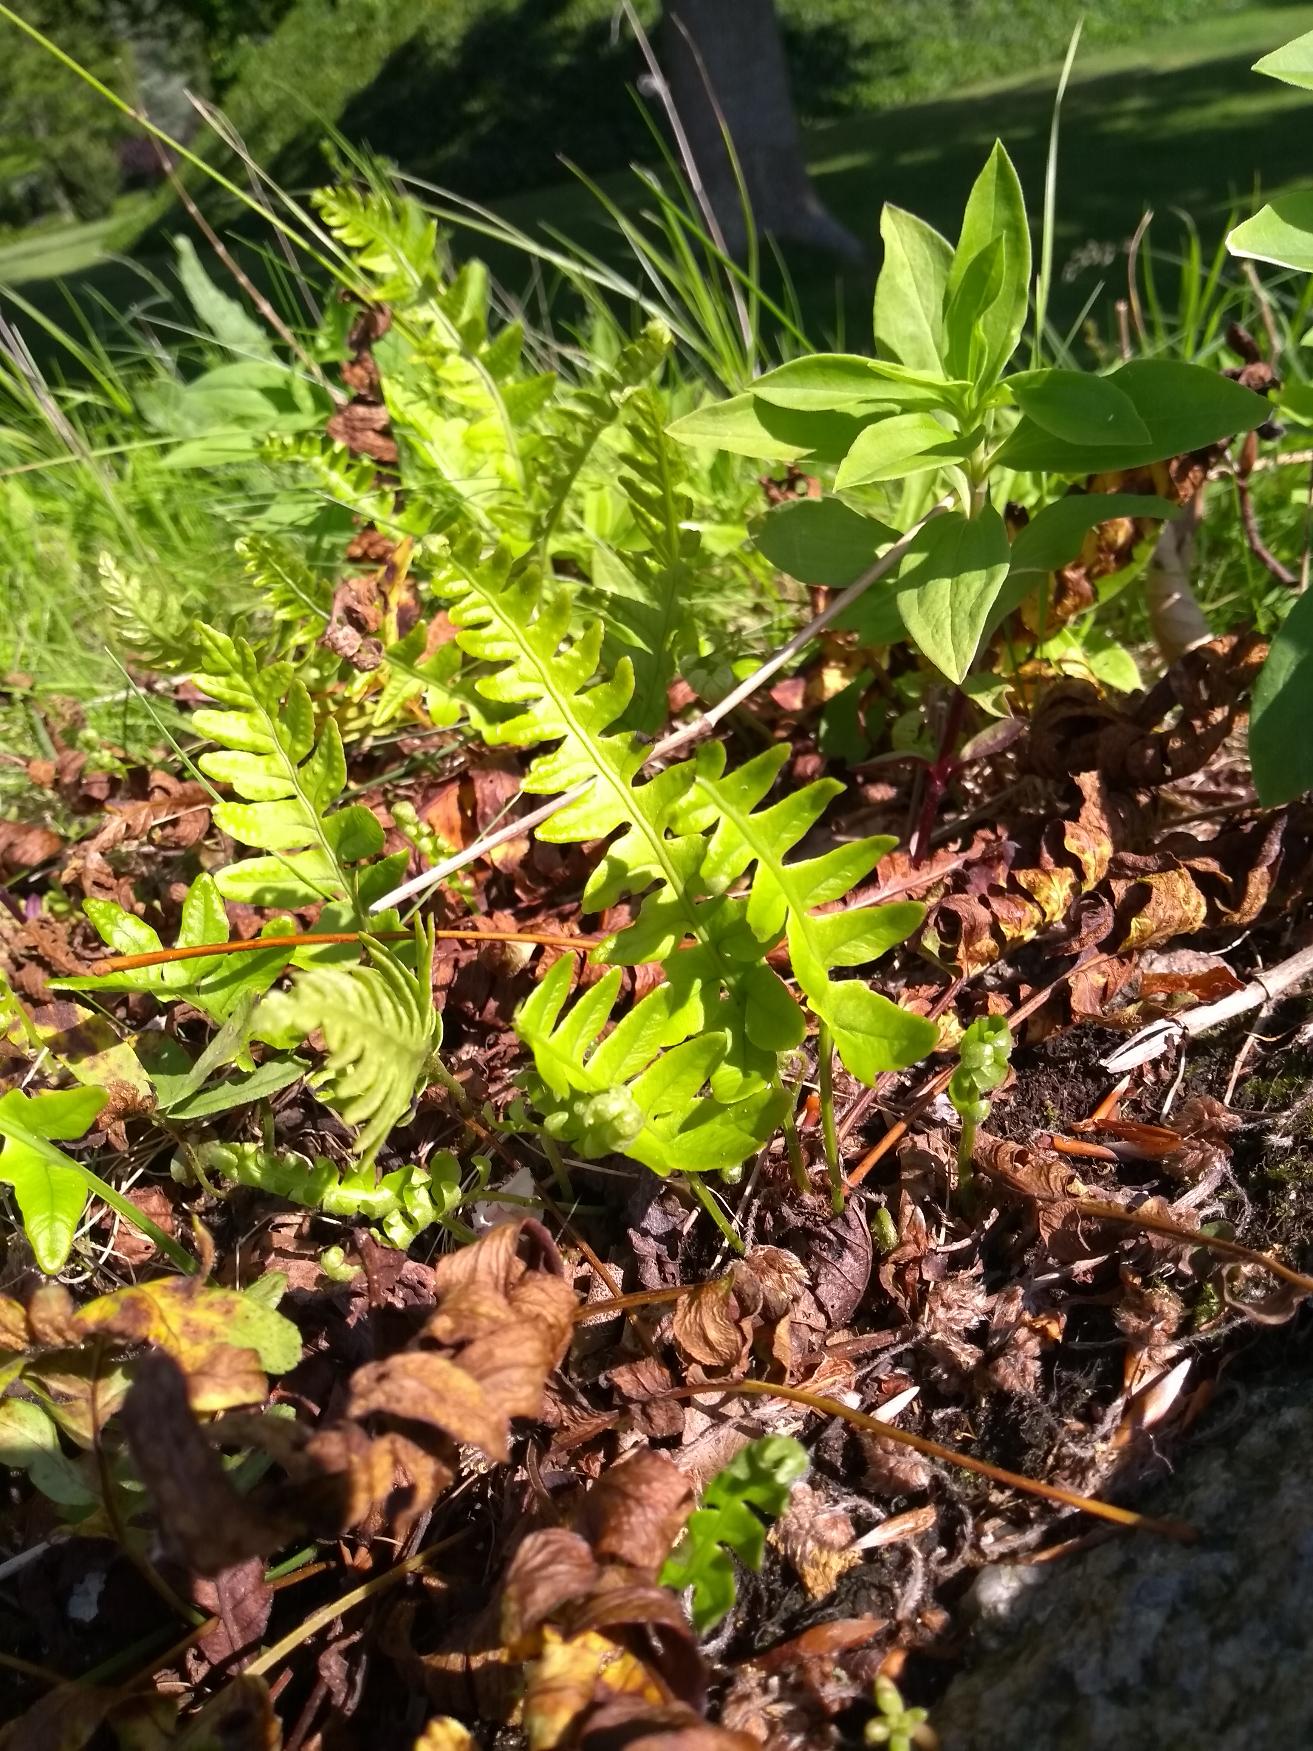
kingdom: Plantae
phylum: Tracheophyta
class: Polypodiopsida
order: Polypodiales
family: Polypodiaceae
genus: Polypodium
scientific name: Polypodium vulgare
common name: Almindelig engelsød
